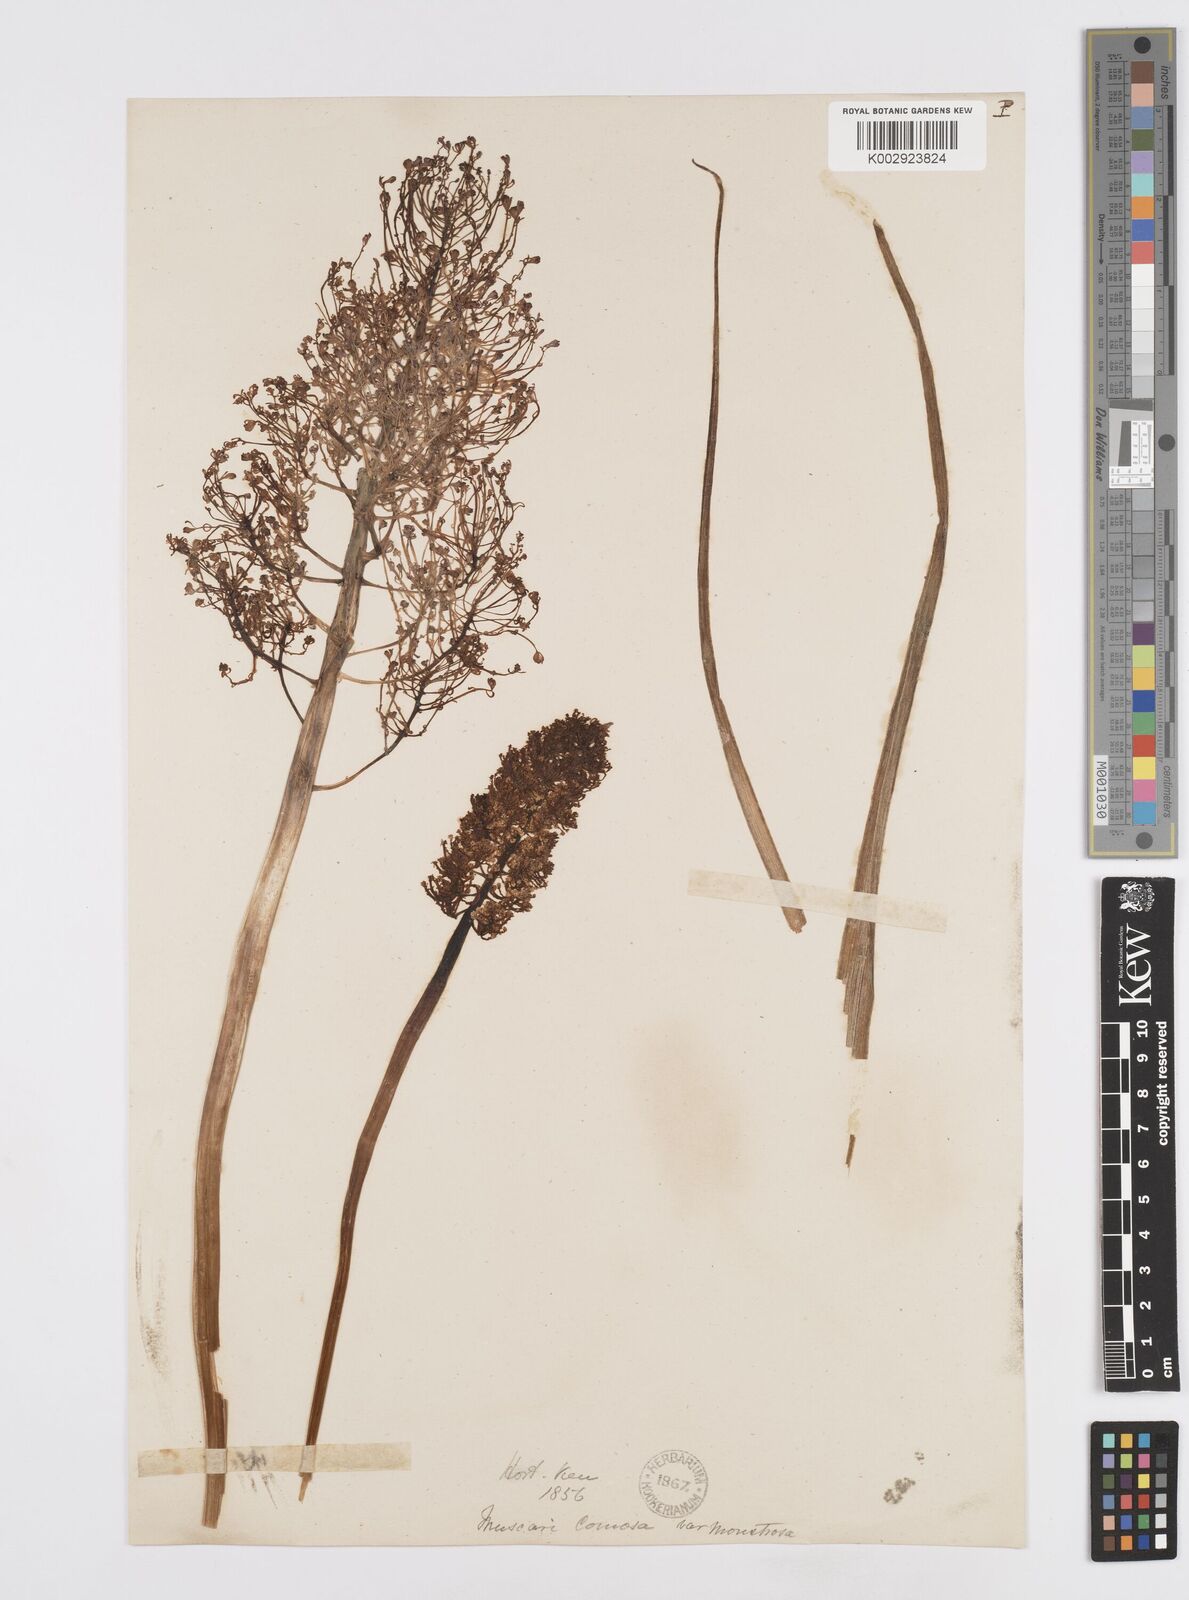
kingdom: Plantae
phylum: Tracheophyta
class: Liliopsida
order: Asparagales
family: Asparagaceae
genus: Muscari
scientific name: Muscari comosum
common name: Tassel hyacinth
